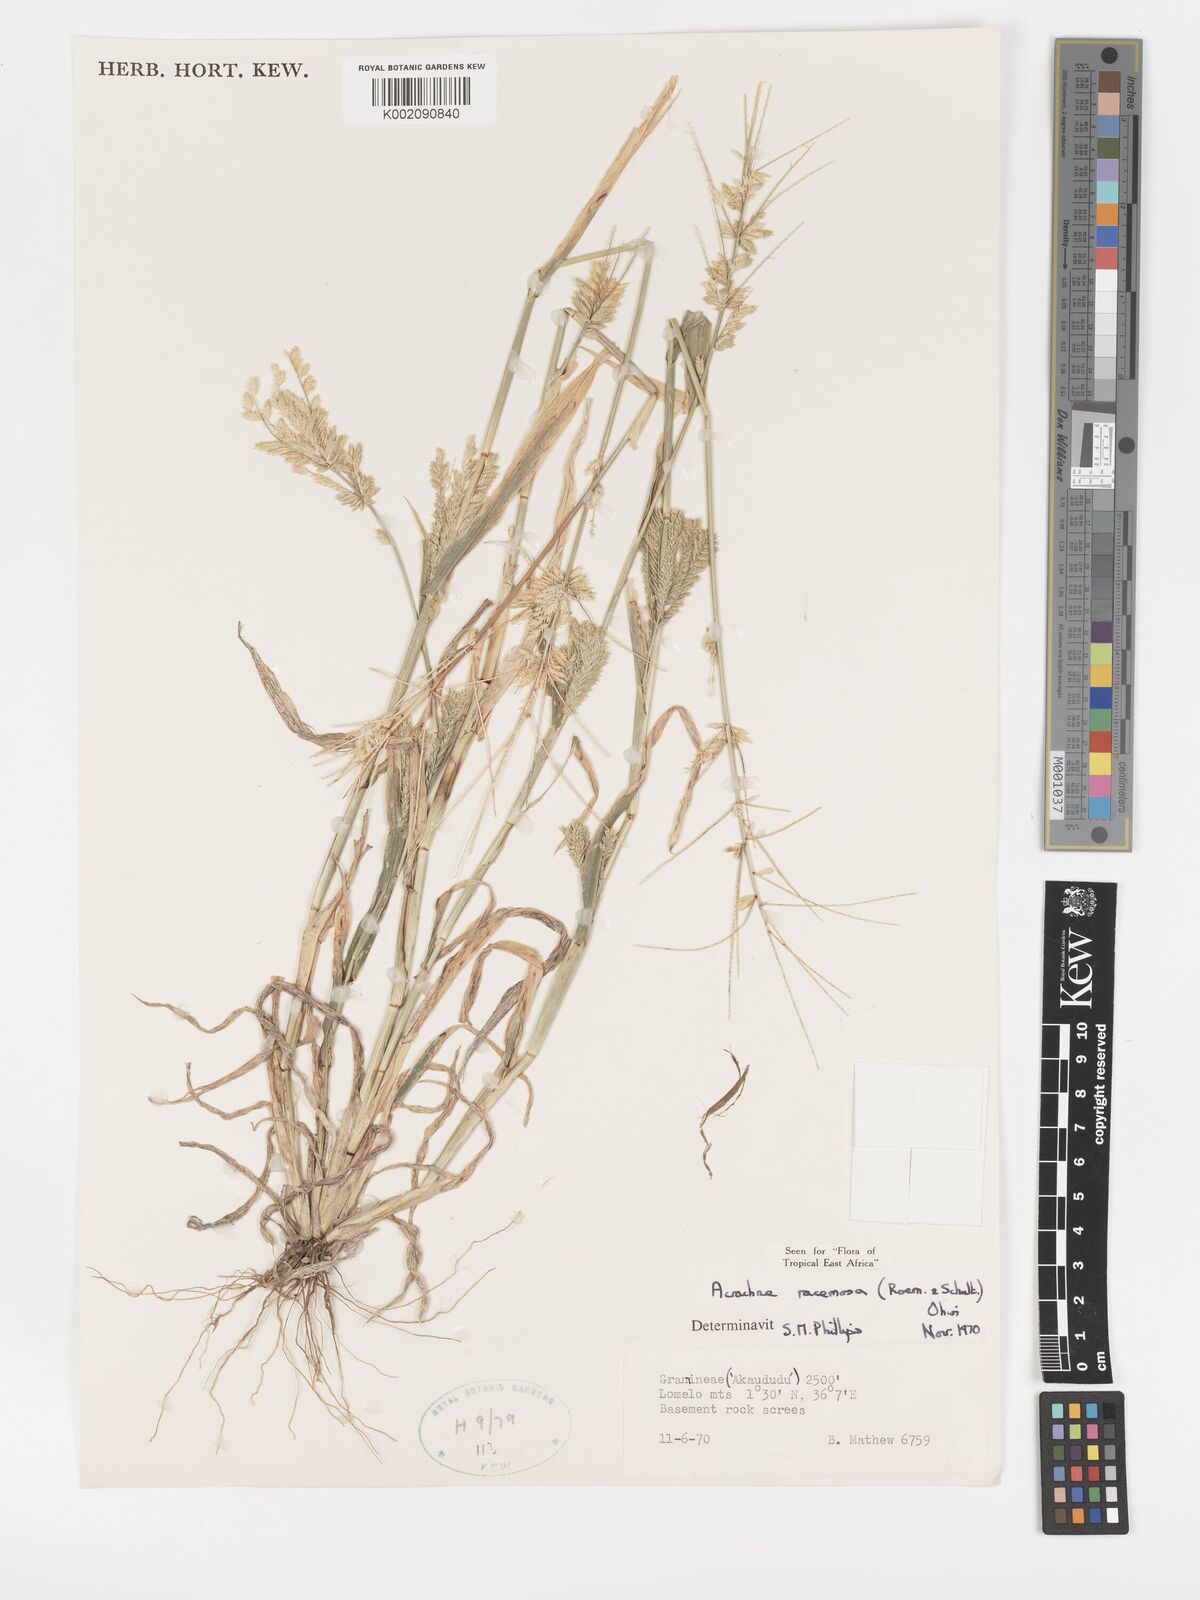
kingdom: Plantae
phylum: Tracheophyta
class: Liliopsida
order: Poales
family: Poaceae
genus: Acrachne
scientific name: Acrachne racemosa
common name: Goosegrass
